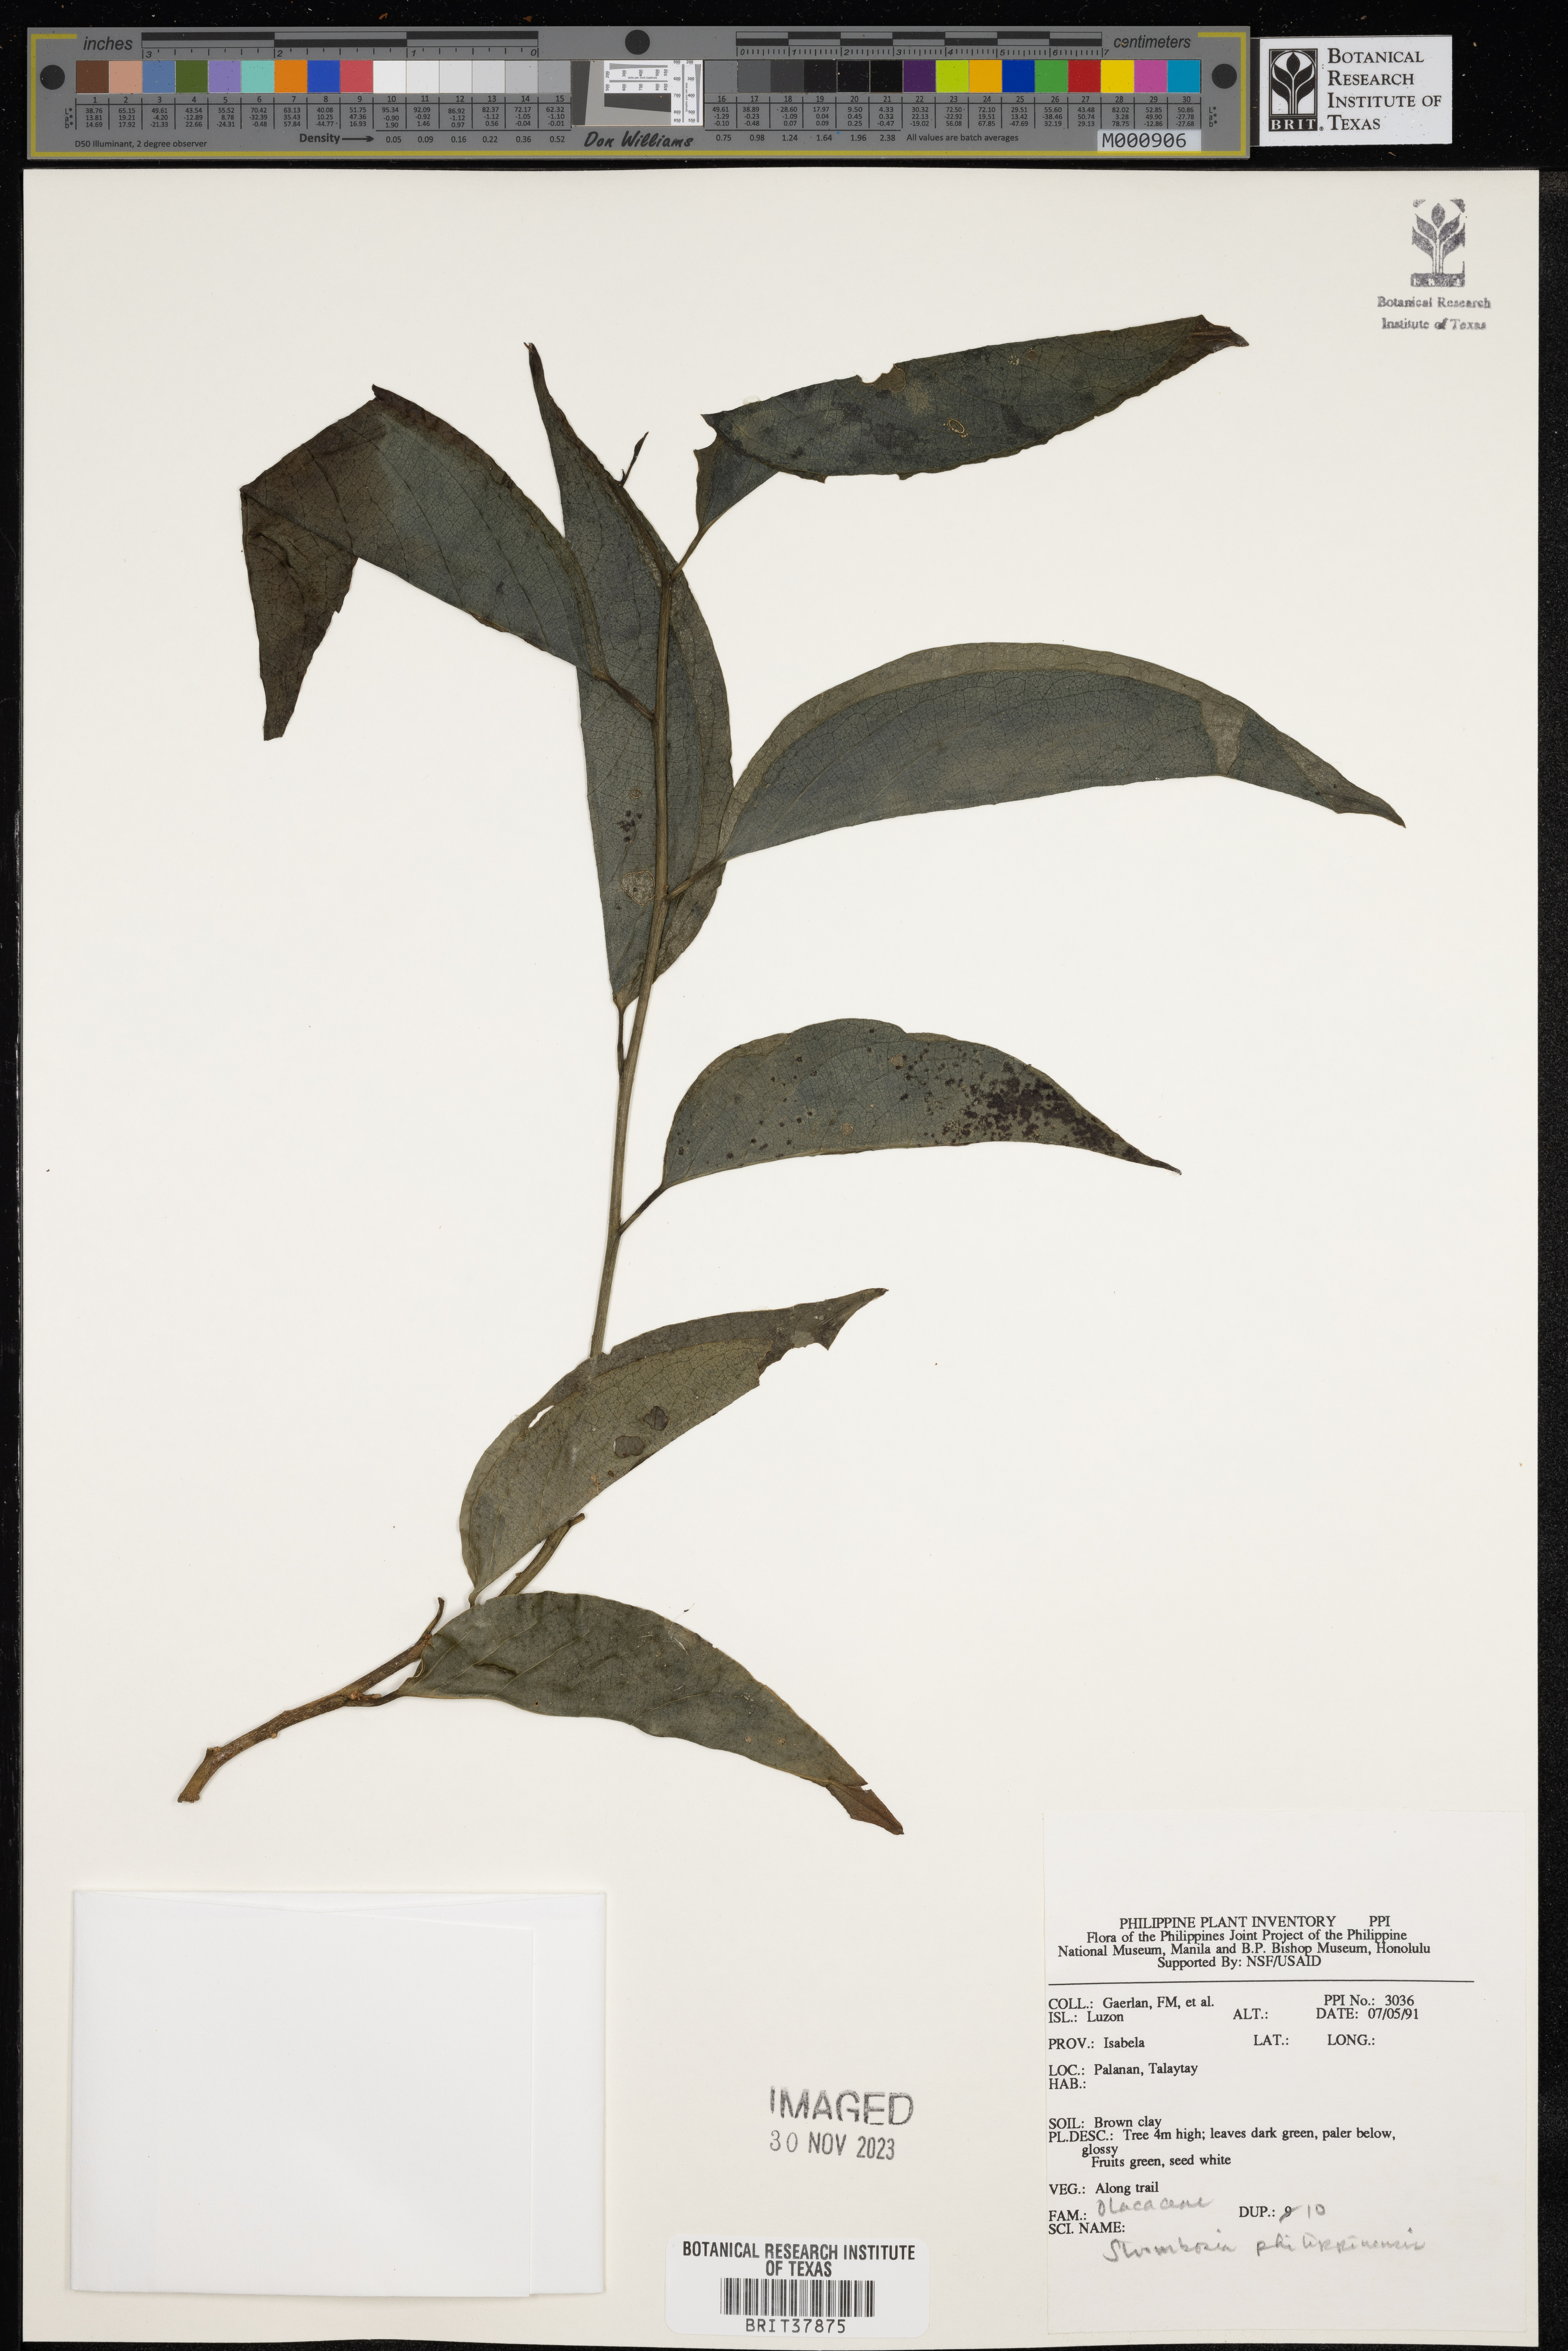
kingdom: Plantae
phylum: Tracheophyta
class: Magnoliopsida
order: Santalales
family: Strombosiaceae
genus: Strombosia
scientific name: Strombosia philippinensis
